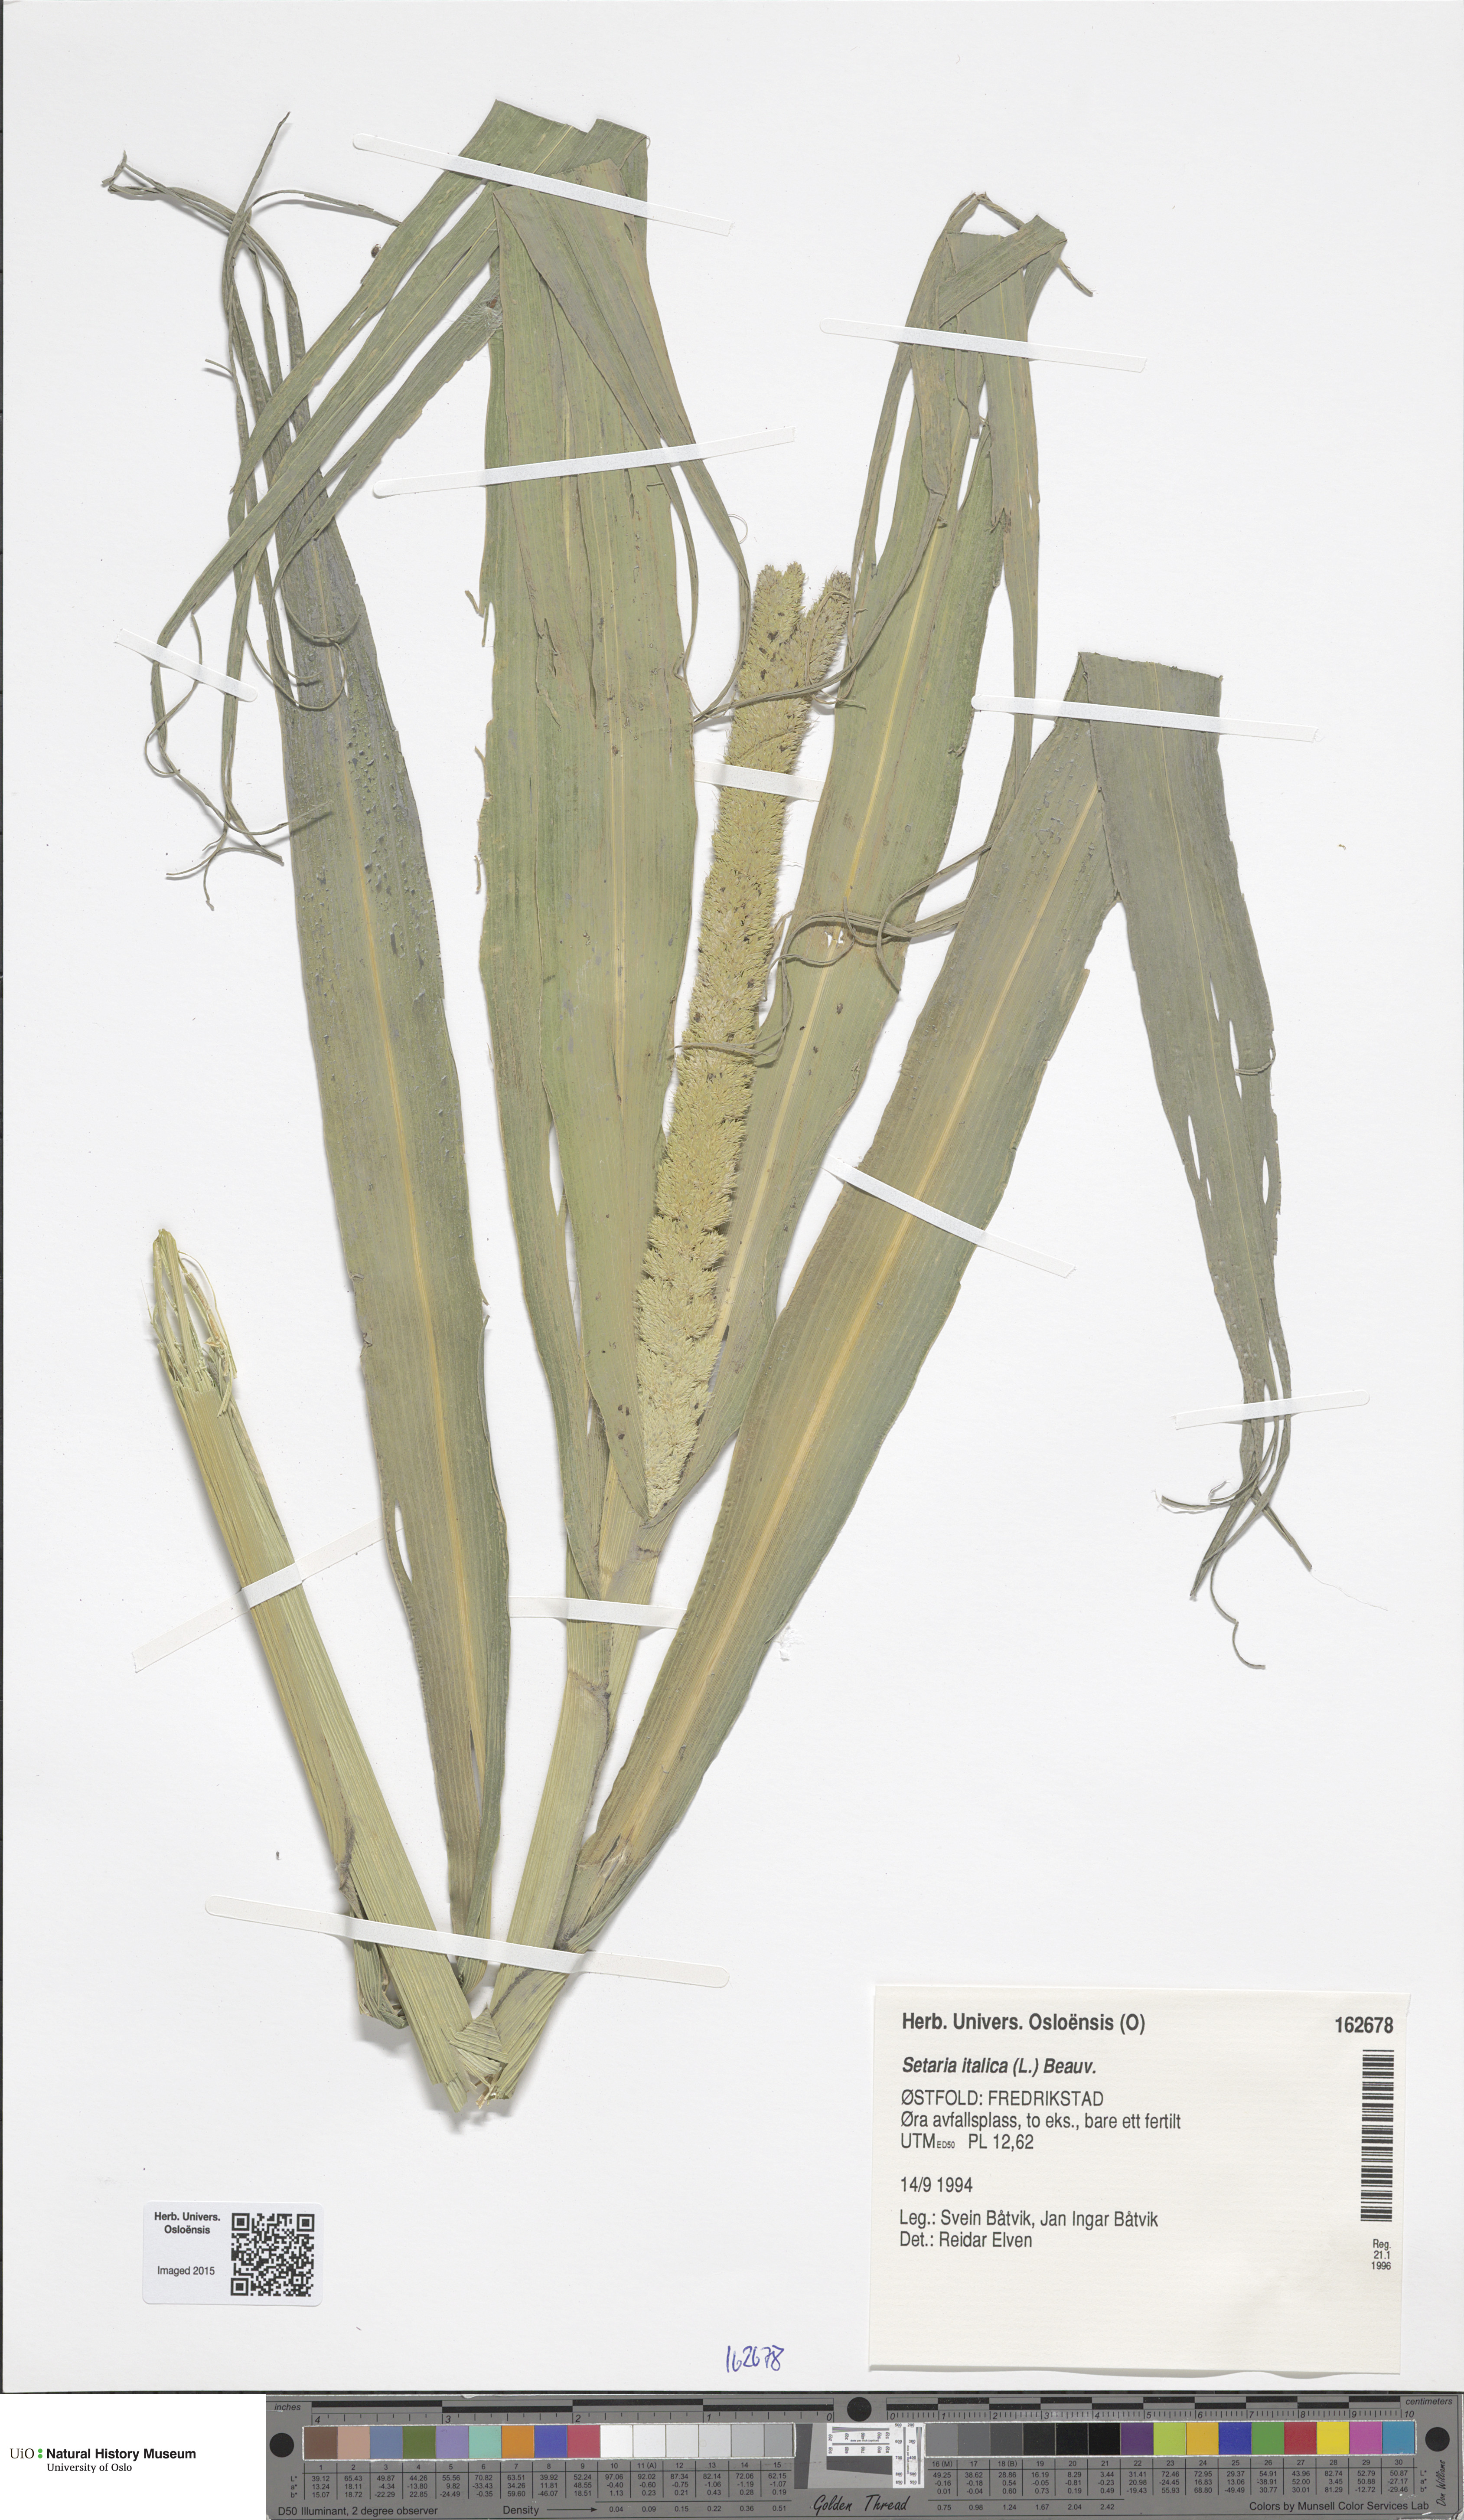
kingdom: Plantae
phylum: Tracheophyta
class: Liliopsida
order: Poales
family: Poaceae
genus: Setaria
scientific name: Setaria italica
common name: Foxtail bristle-grass
